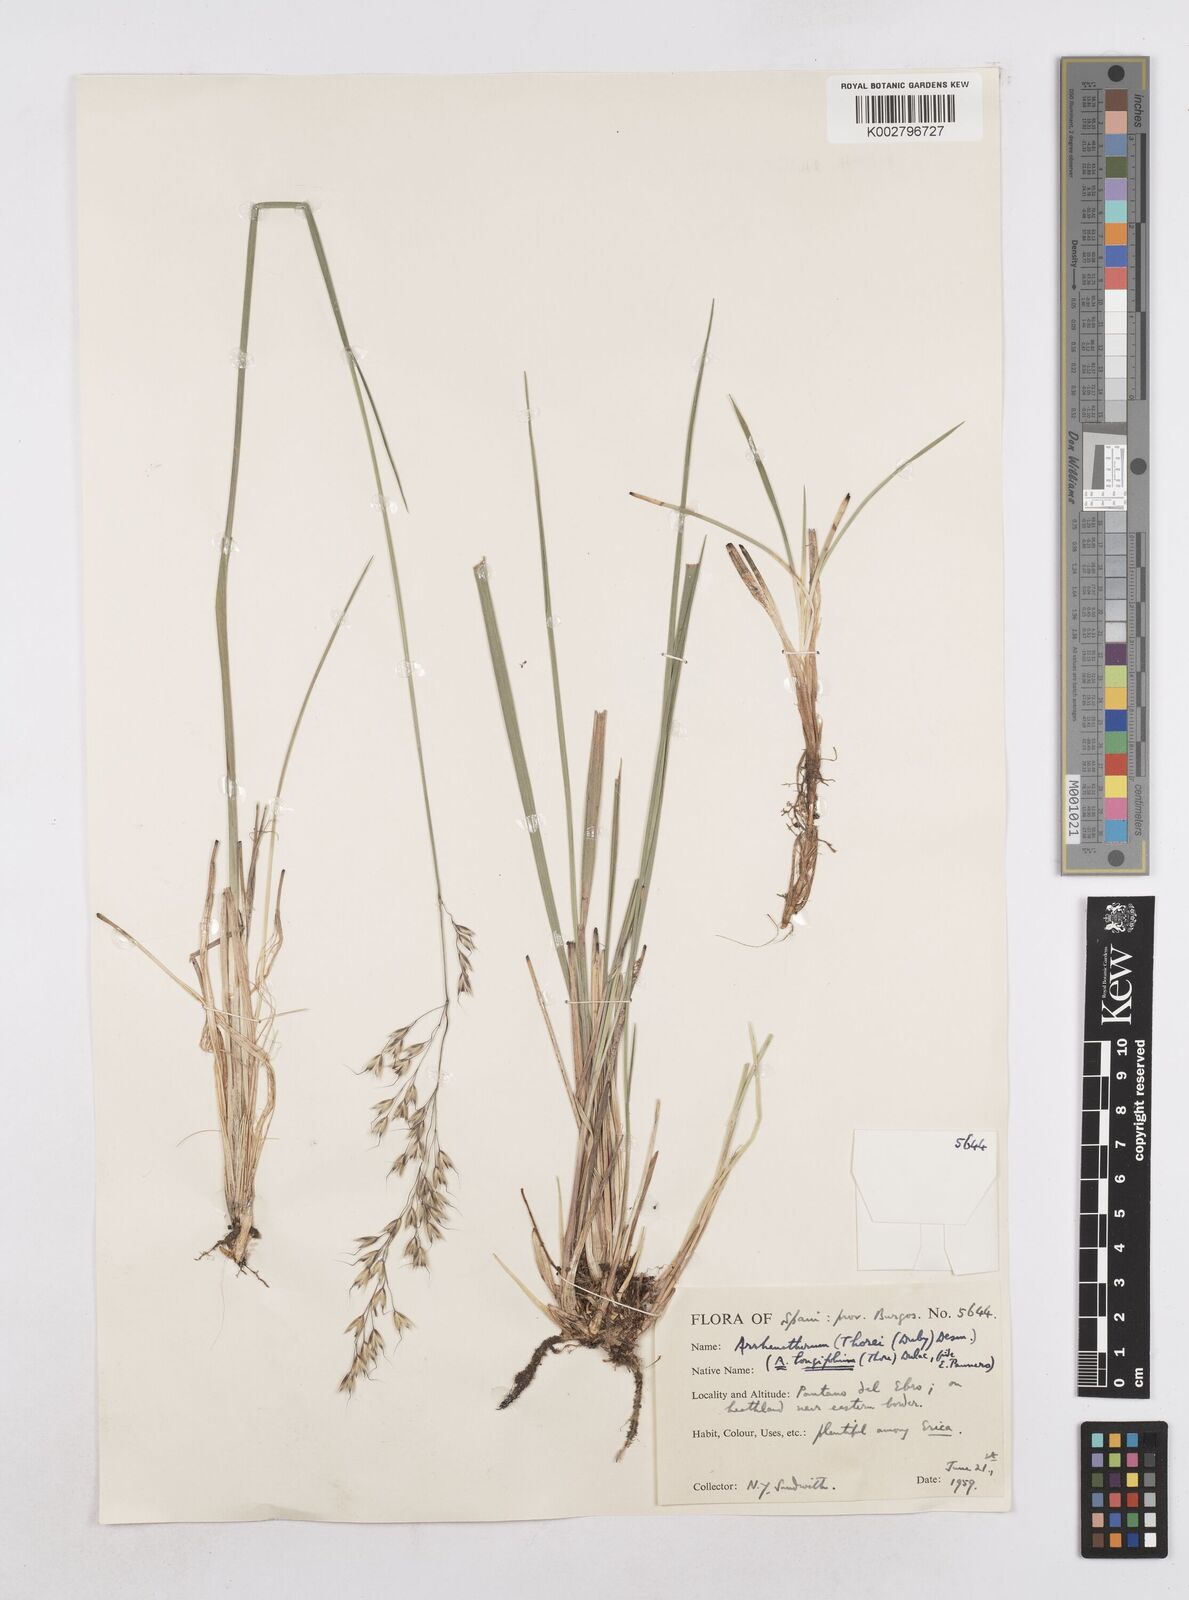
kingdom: Plantae
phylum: Tracheophyta
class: Liliopsida
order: Poales
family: Poaceae
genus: Arrhenatherum
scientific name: Arrhenatherum longifolium
